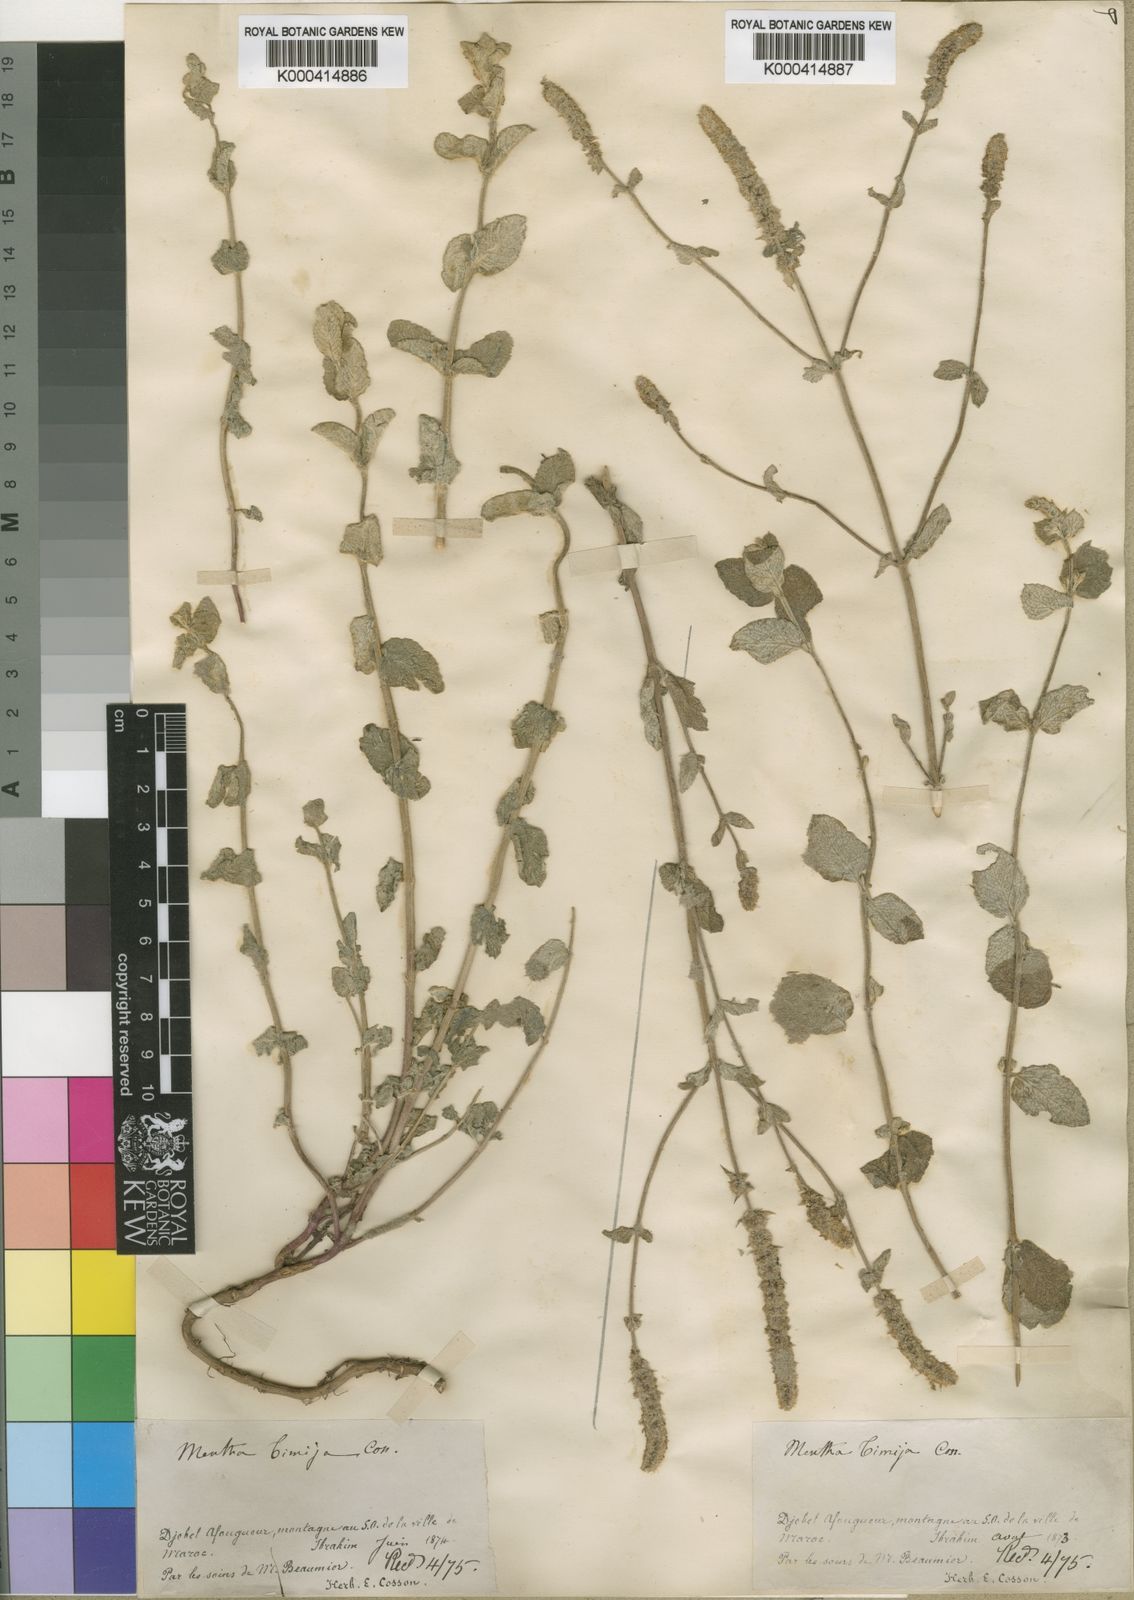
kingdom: Plantae
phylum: Tracheophyta
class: Magnoliopsida
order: Lamiales
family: Lamiaceae
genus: Mentha
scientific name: Mentha
